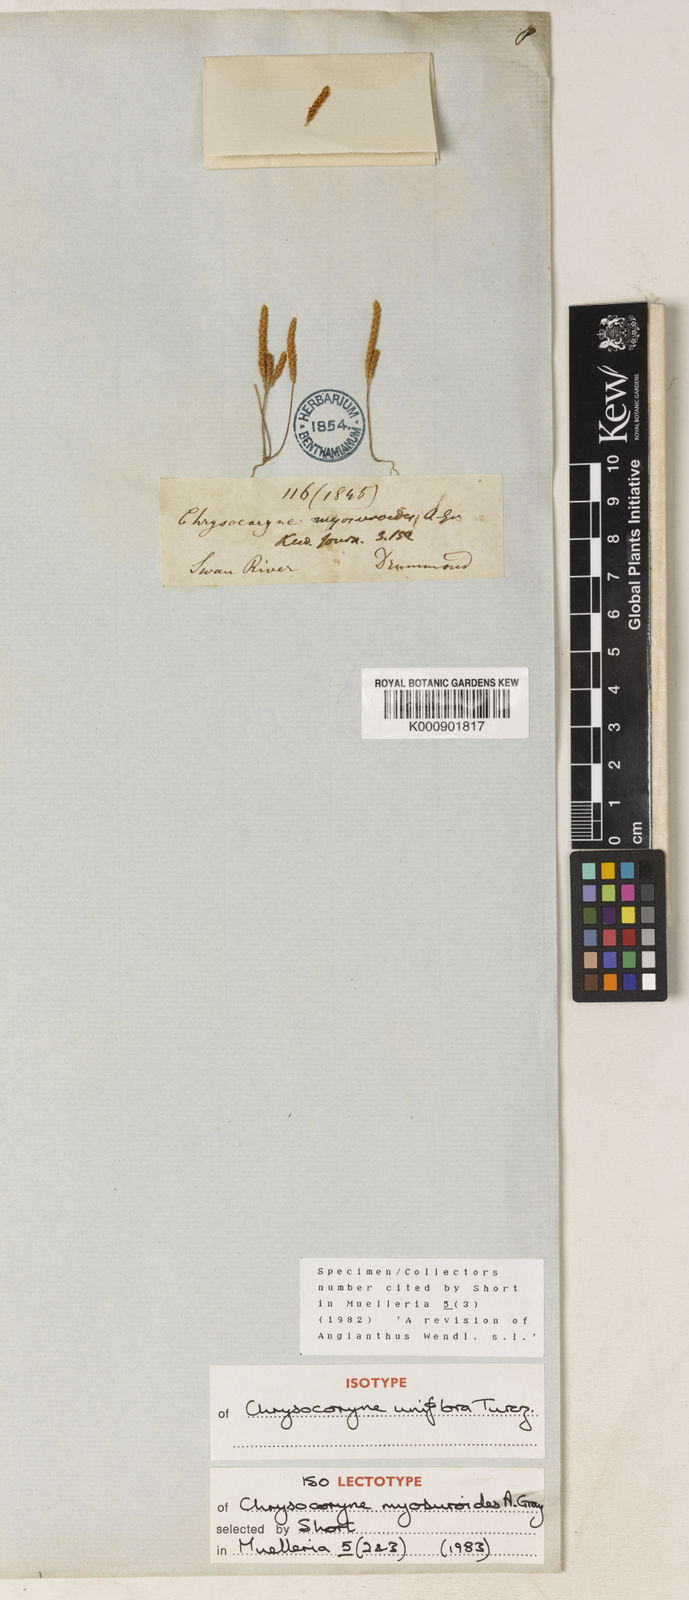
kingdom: Plantae
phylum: Tracheophyta
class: Magnoliopsida
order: Asterales
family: Asteraceae
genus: Gnephosis
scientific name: Gnephosis uniflora
